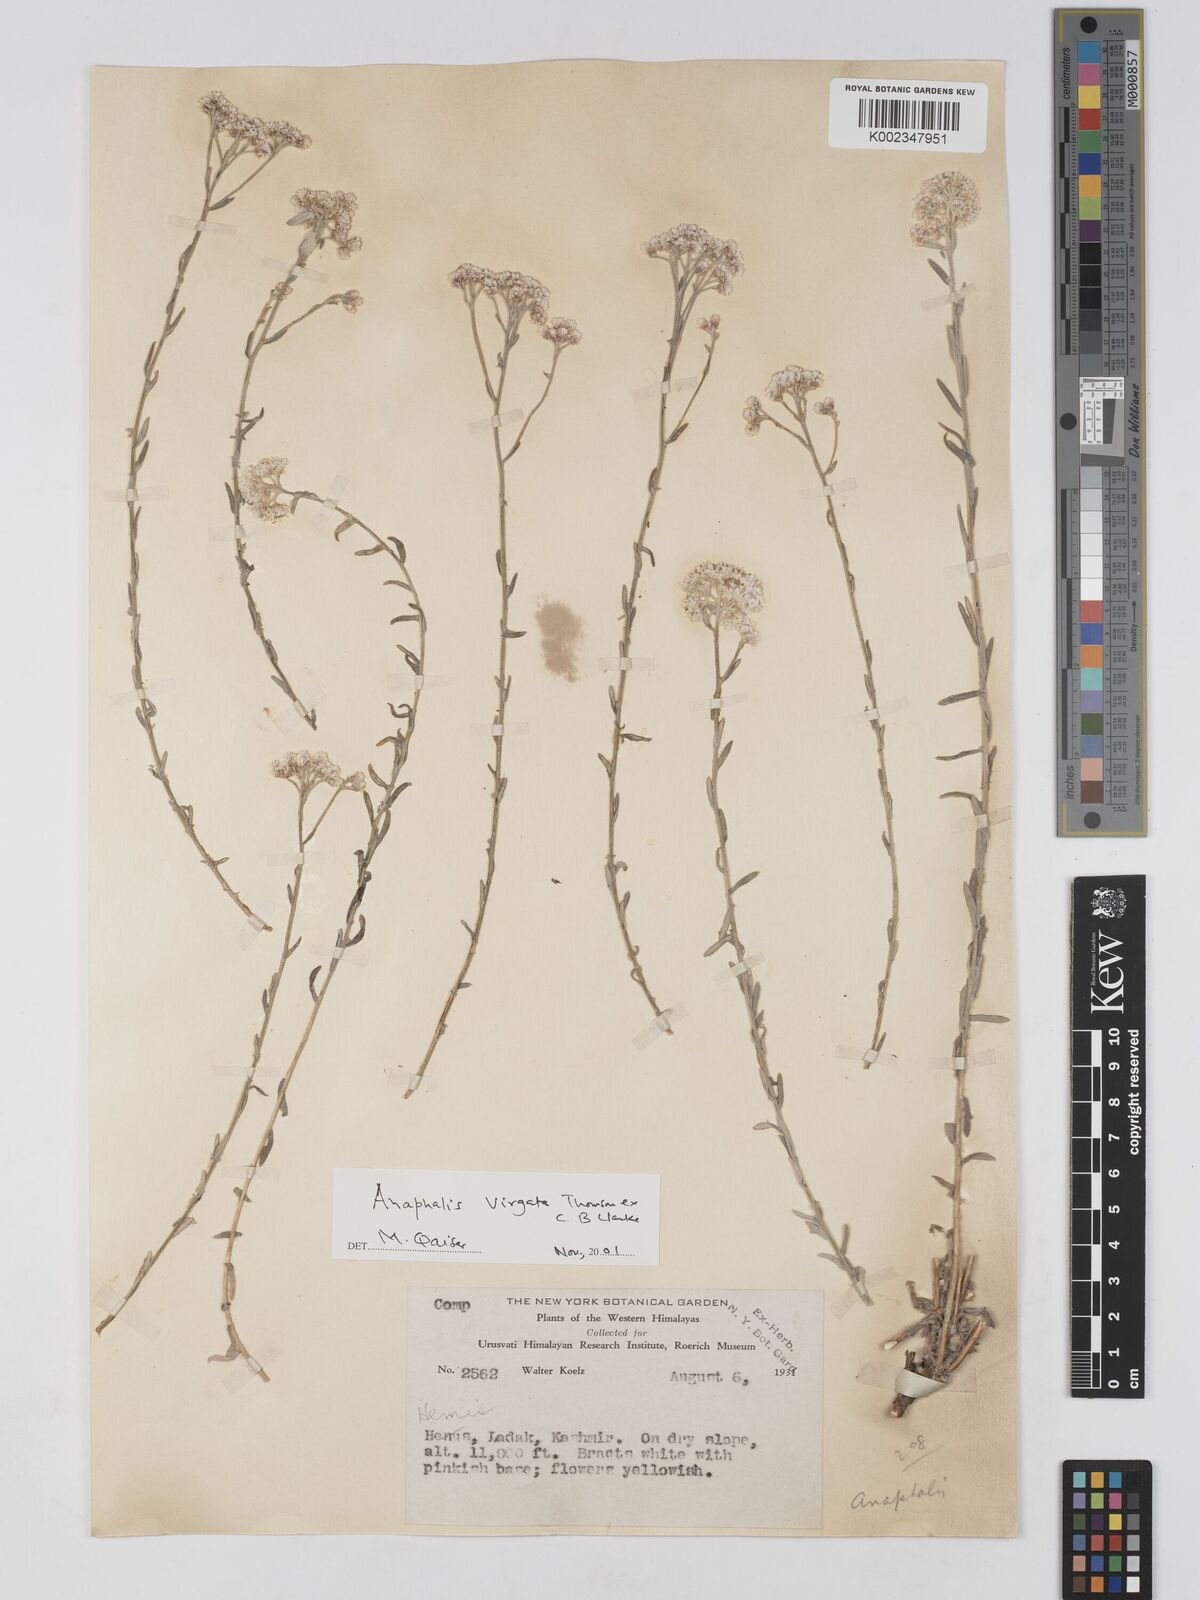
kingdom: Plantae
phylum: Tracheophyta
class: Magnoliopsida
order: Asterales
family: Asteraceae
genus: Anaphalis
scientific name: Anaphalis
